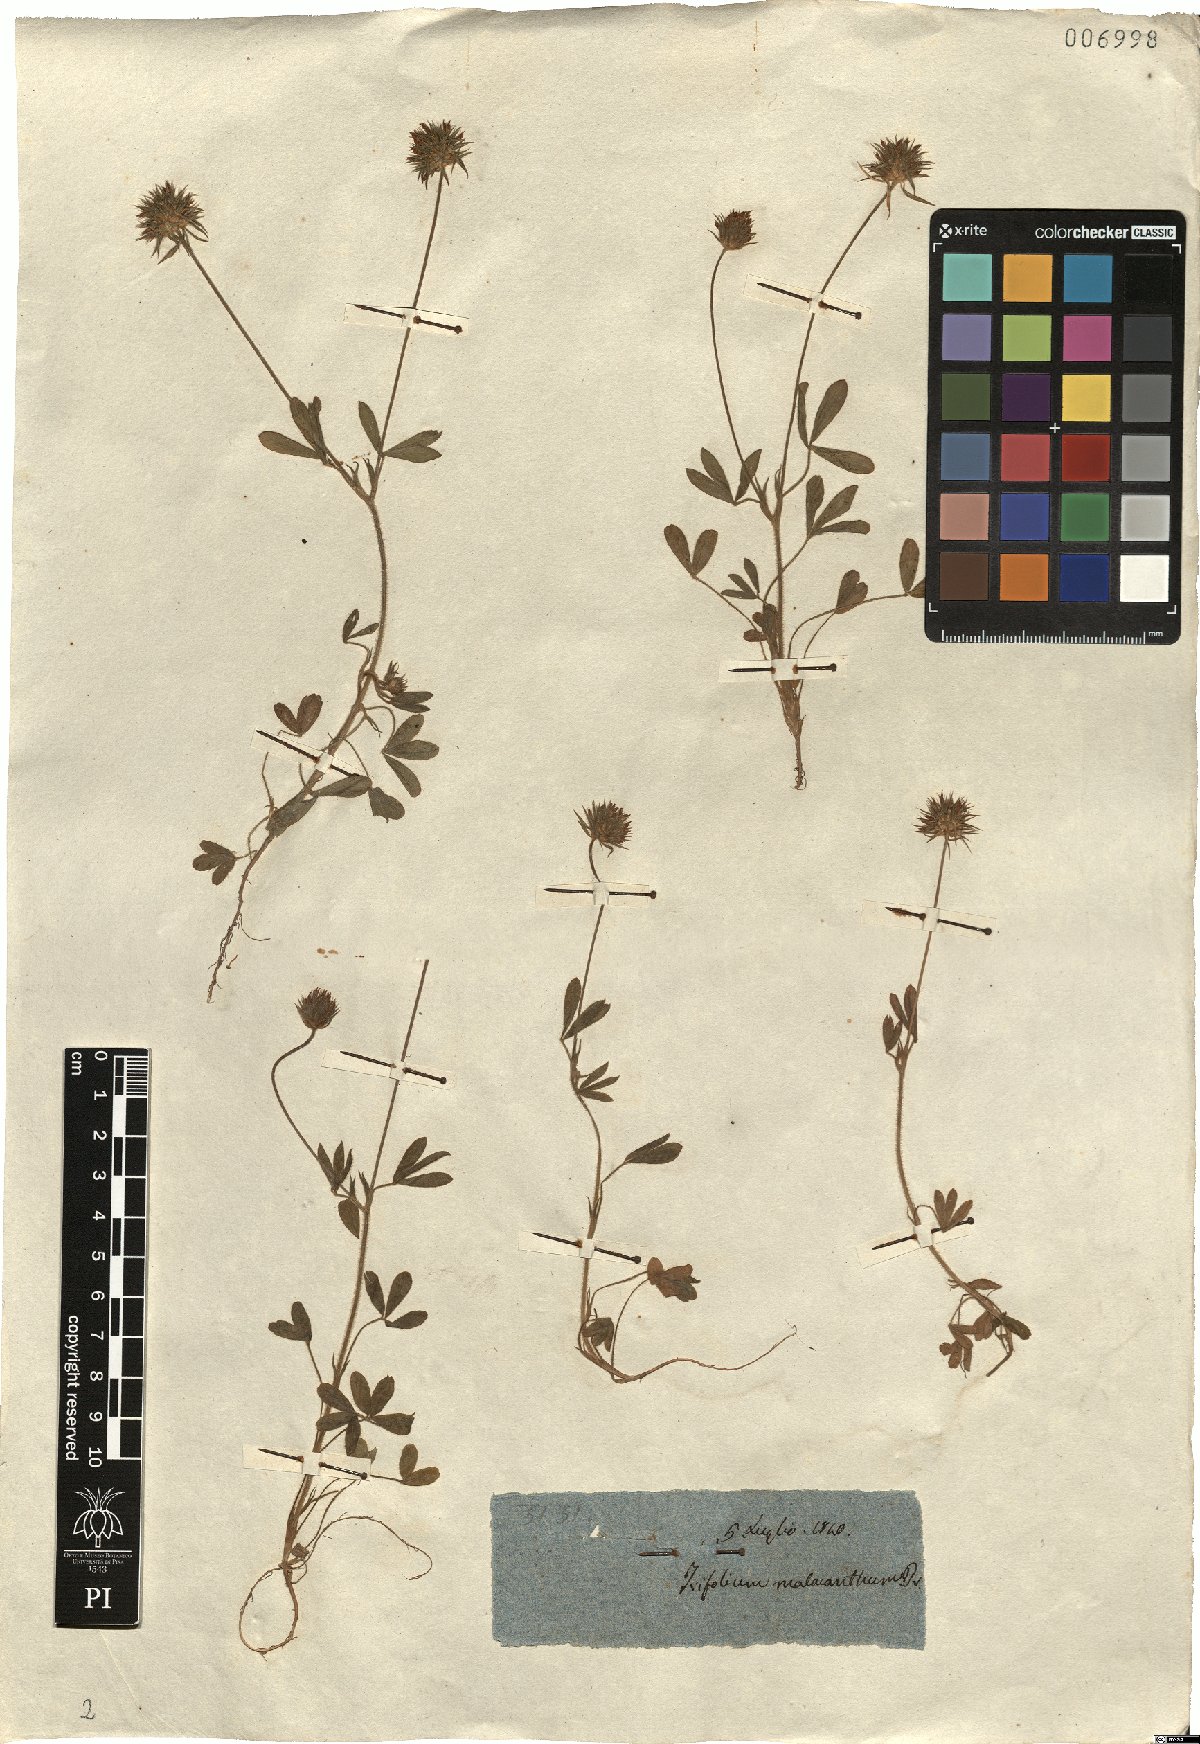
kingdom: Plantae
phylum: Tracheophyta
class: Magnoliopsida
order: Fabales
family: Fabaceae
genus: Trifolium
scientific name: Trifolium obscurum
